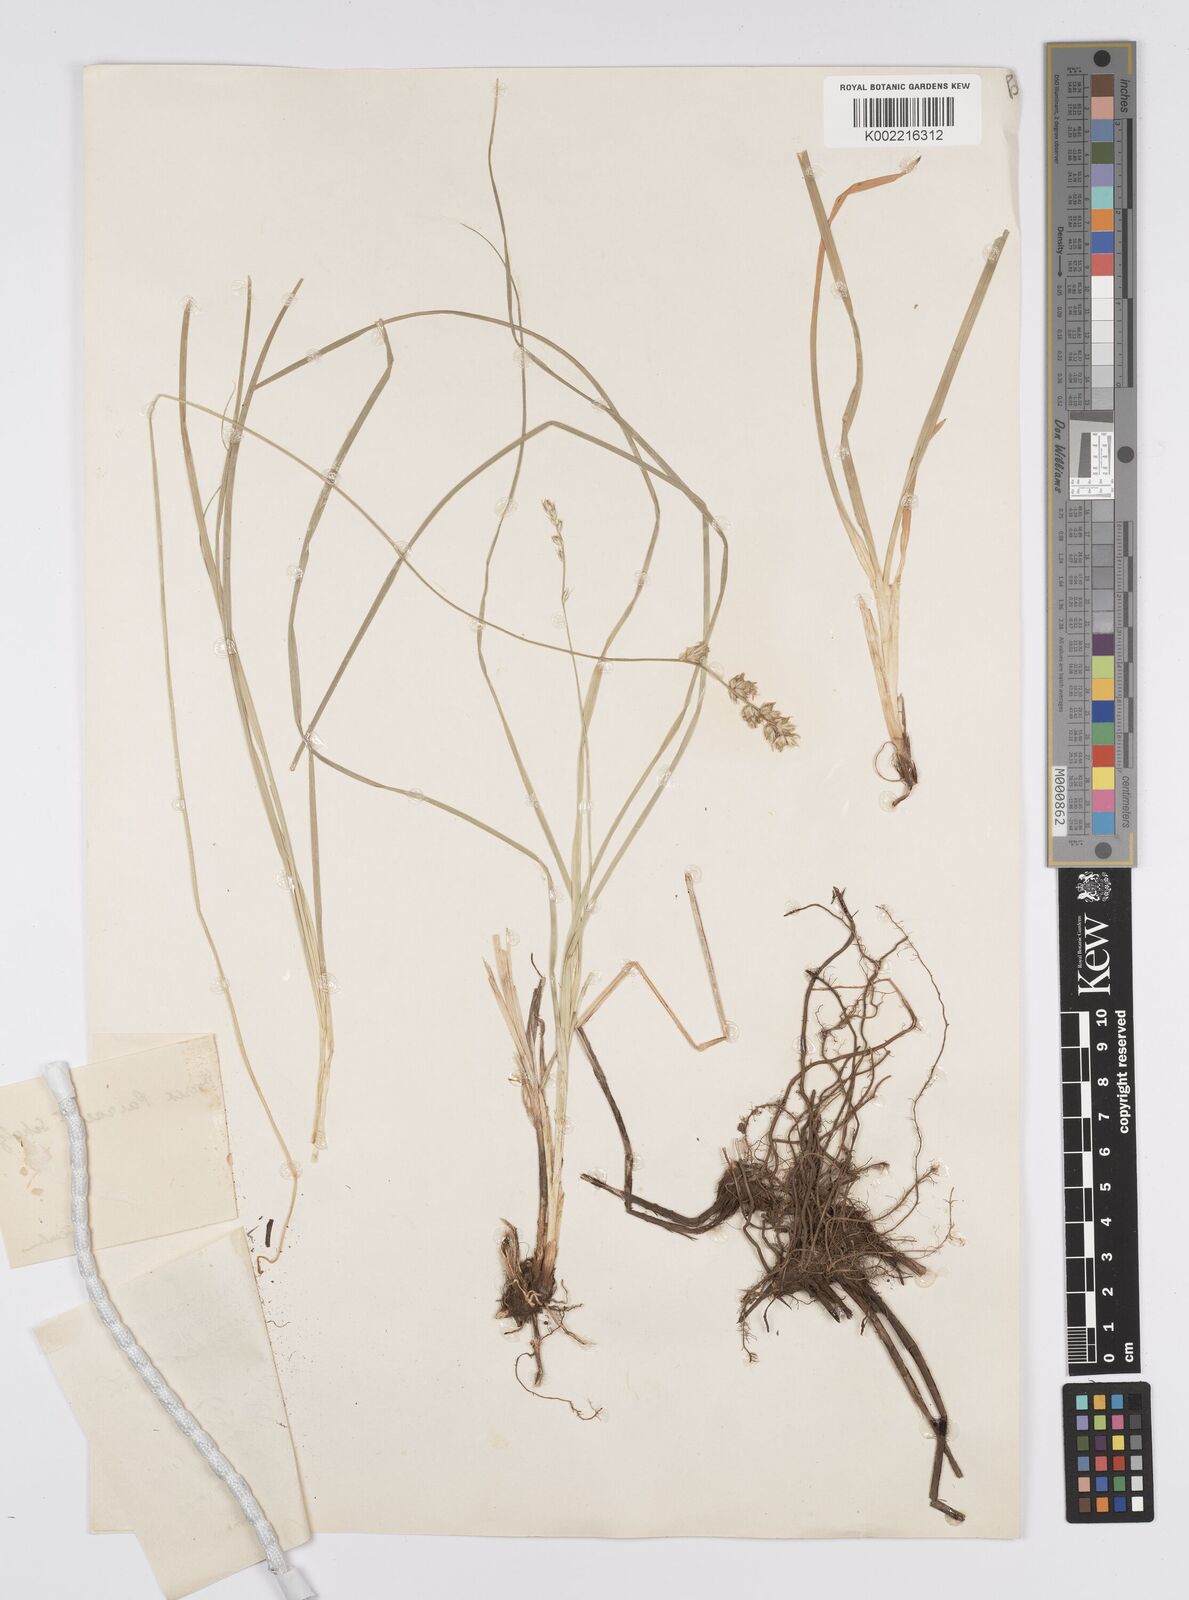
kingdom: Plantae
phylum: Tracheophyta
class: Liliopsida
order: Poales
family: Cyperaceae
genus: Carex
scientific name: Carex coriogyne
